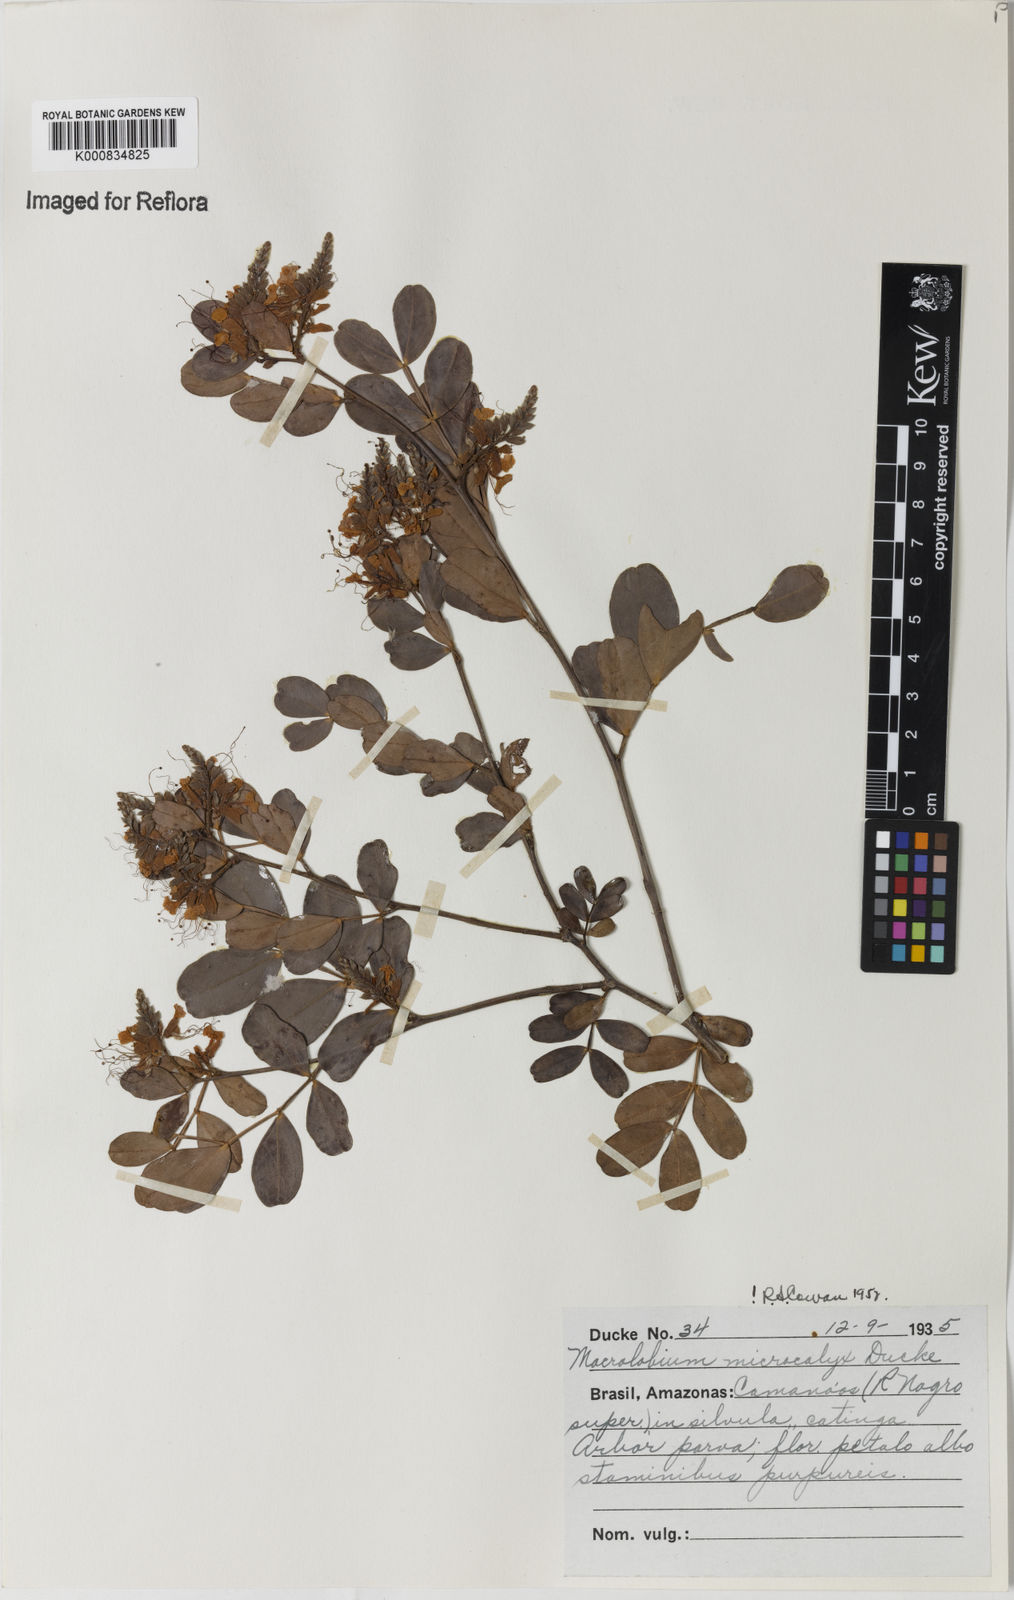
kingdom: Plantae
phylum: Tracheophyta
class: Magnoliopsida
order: Fabales
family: Fabaceae
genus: Macrolobium
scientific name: Macrolobium microcalyx
